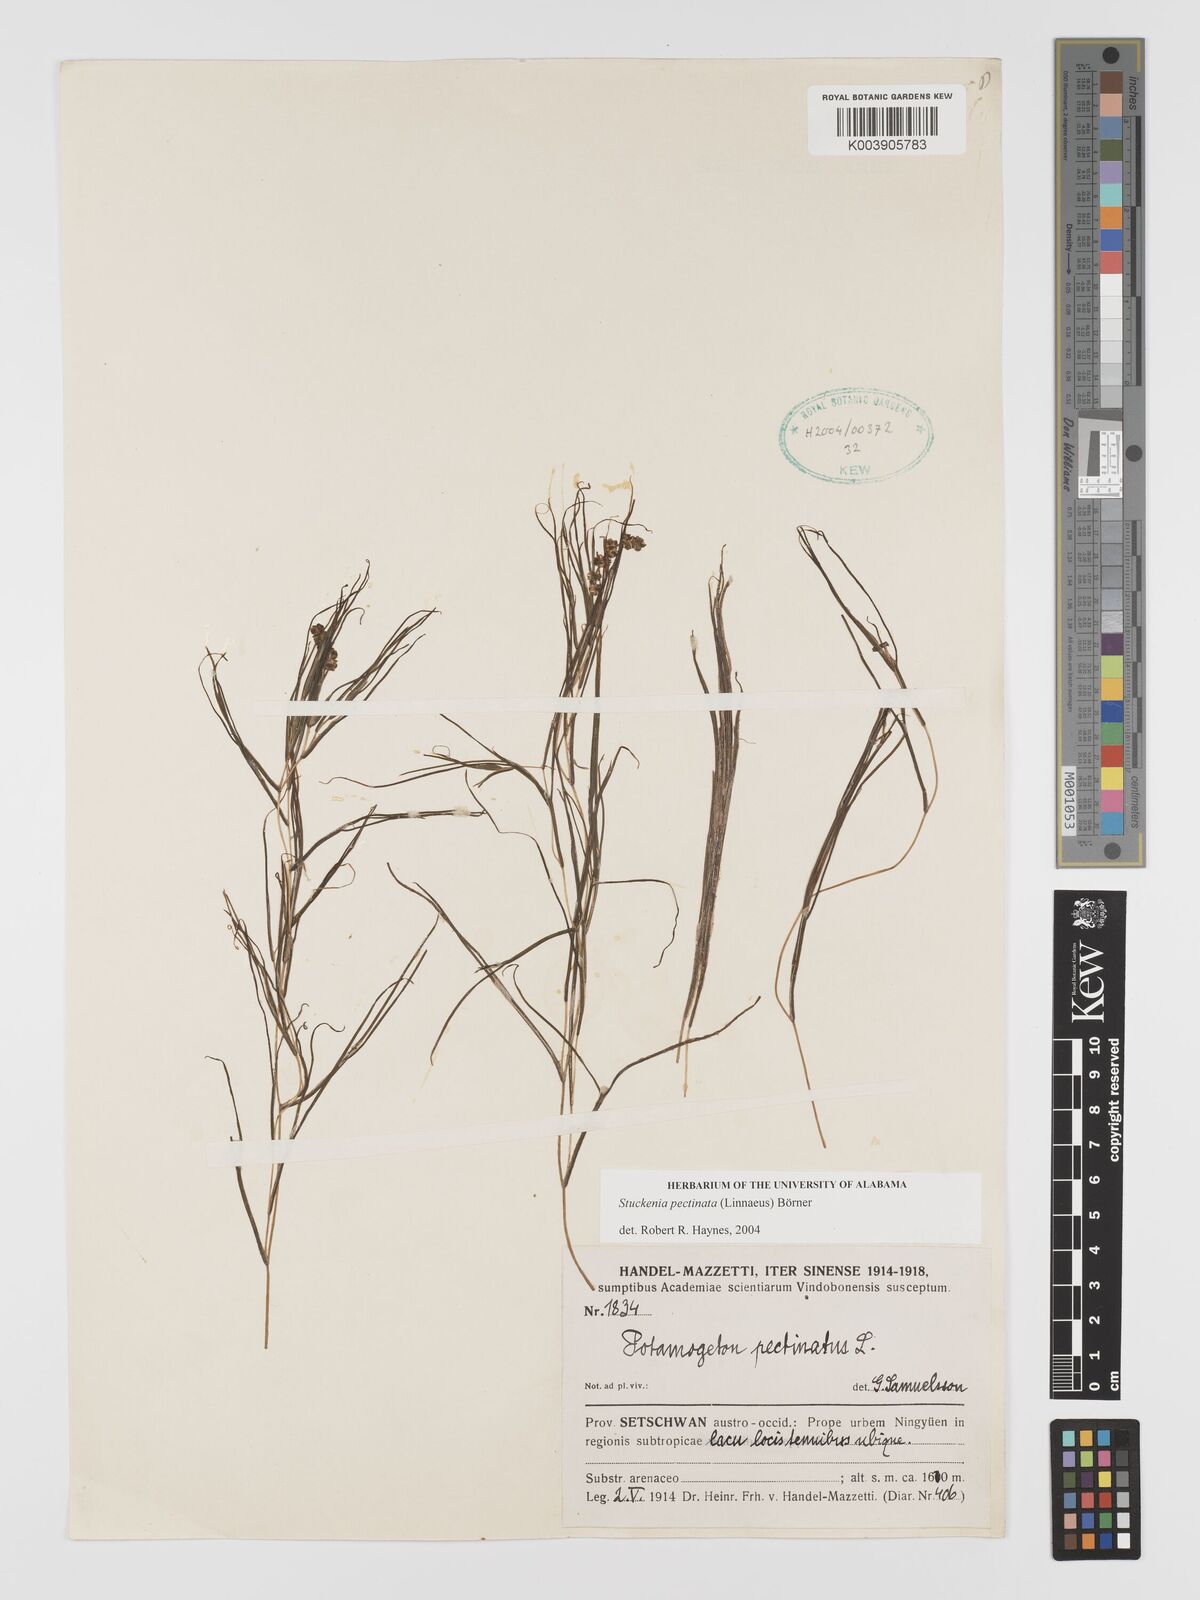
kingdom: Plantae
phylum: Tracheophyta
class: Liliopsida
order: Alismatales
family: Potamogetonaceae
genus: Stuckenia
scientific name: Stuckenia pectinata
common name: Sago pondweed
